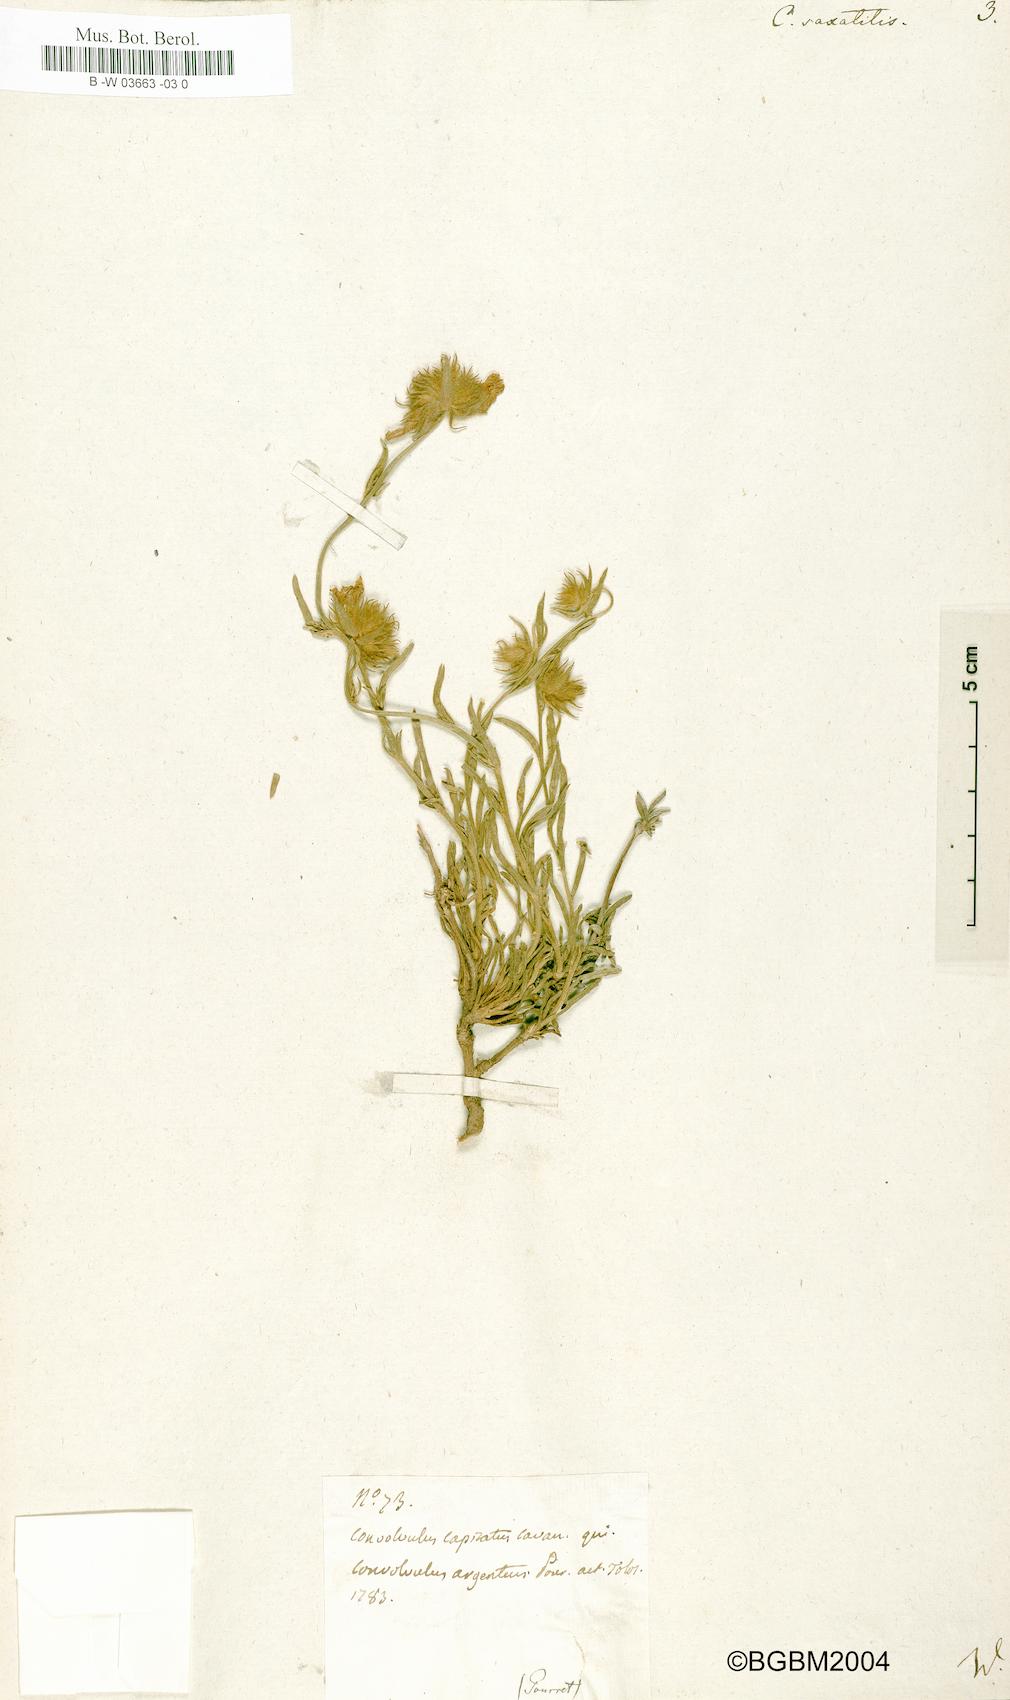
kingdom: Plantae
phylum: Tracheophyta
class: Magnoliopsida
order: Solanales
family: Convolvulaceae
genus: Convolvulus
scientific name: Convolvulus
